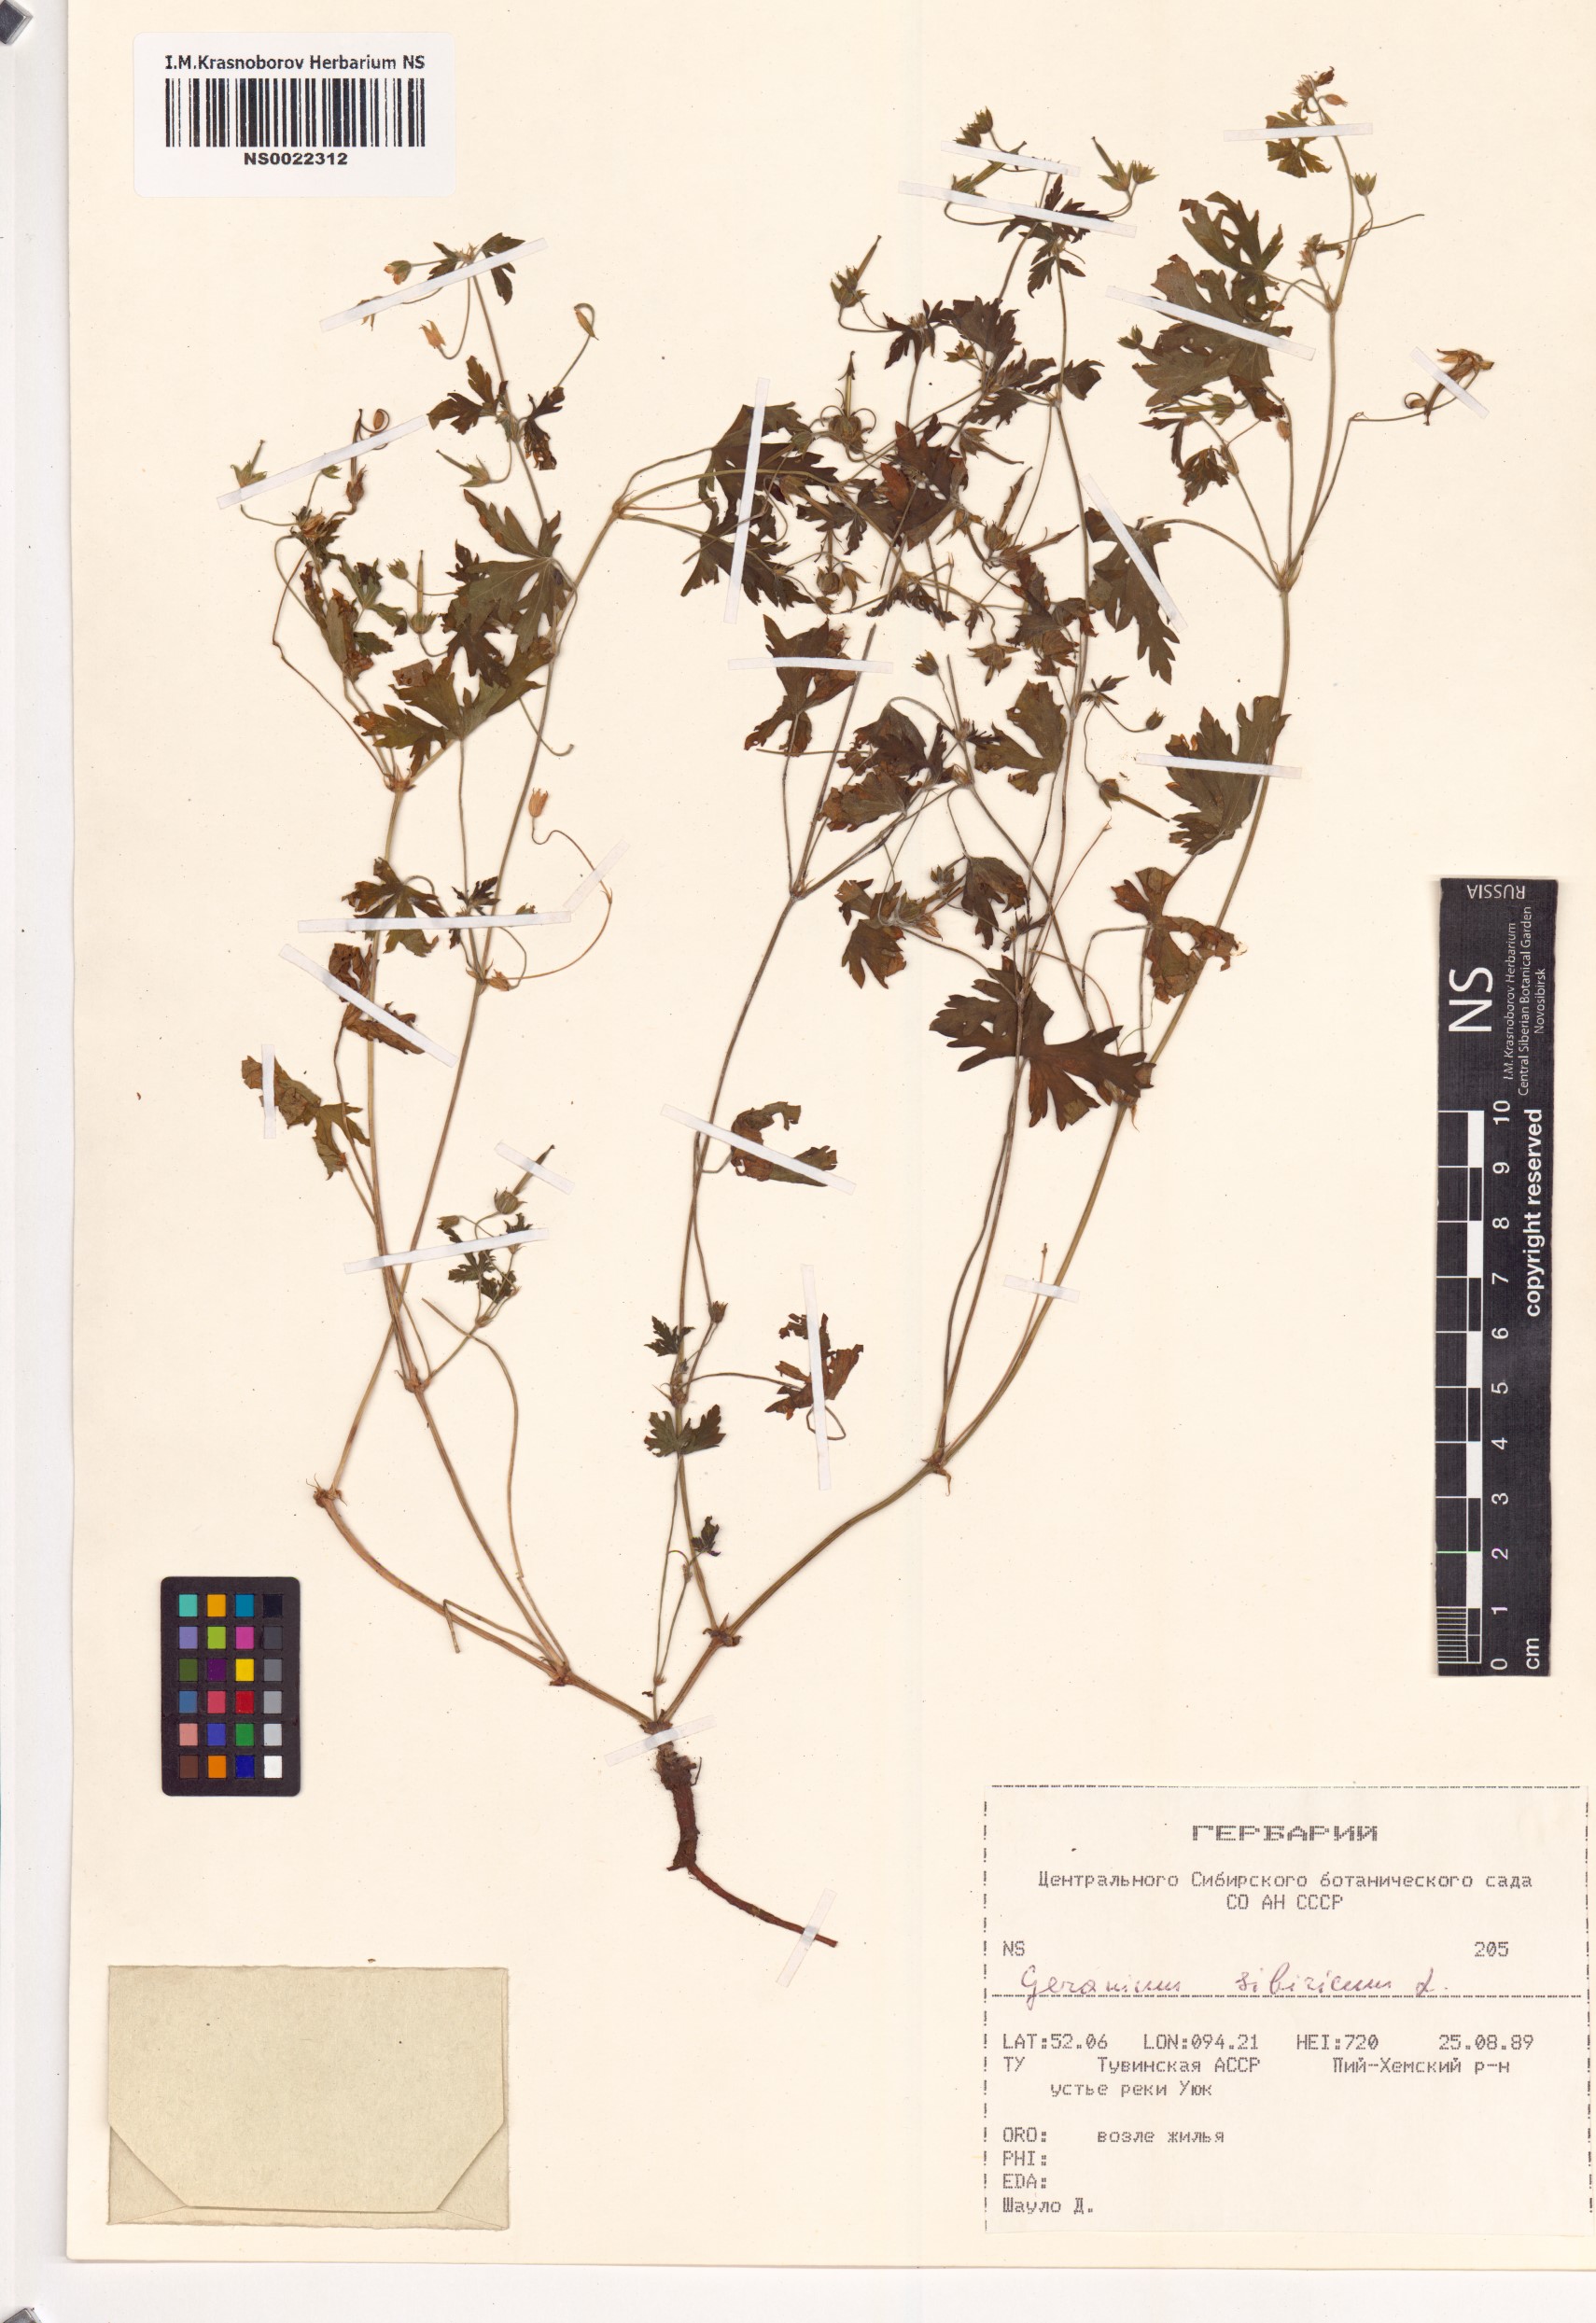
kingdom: Plantae
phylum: Tracheophyta
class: Magnoliopsida
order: Geraniales
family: Geraniaceae
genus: Geranium
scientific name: Geranium sibiricum
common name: Siberian crane's-bill
